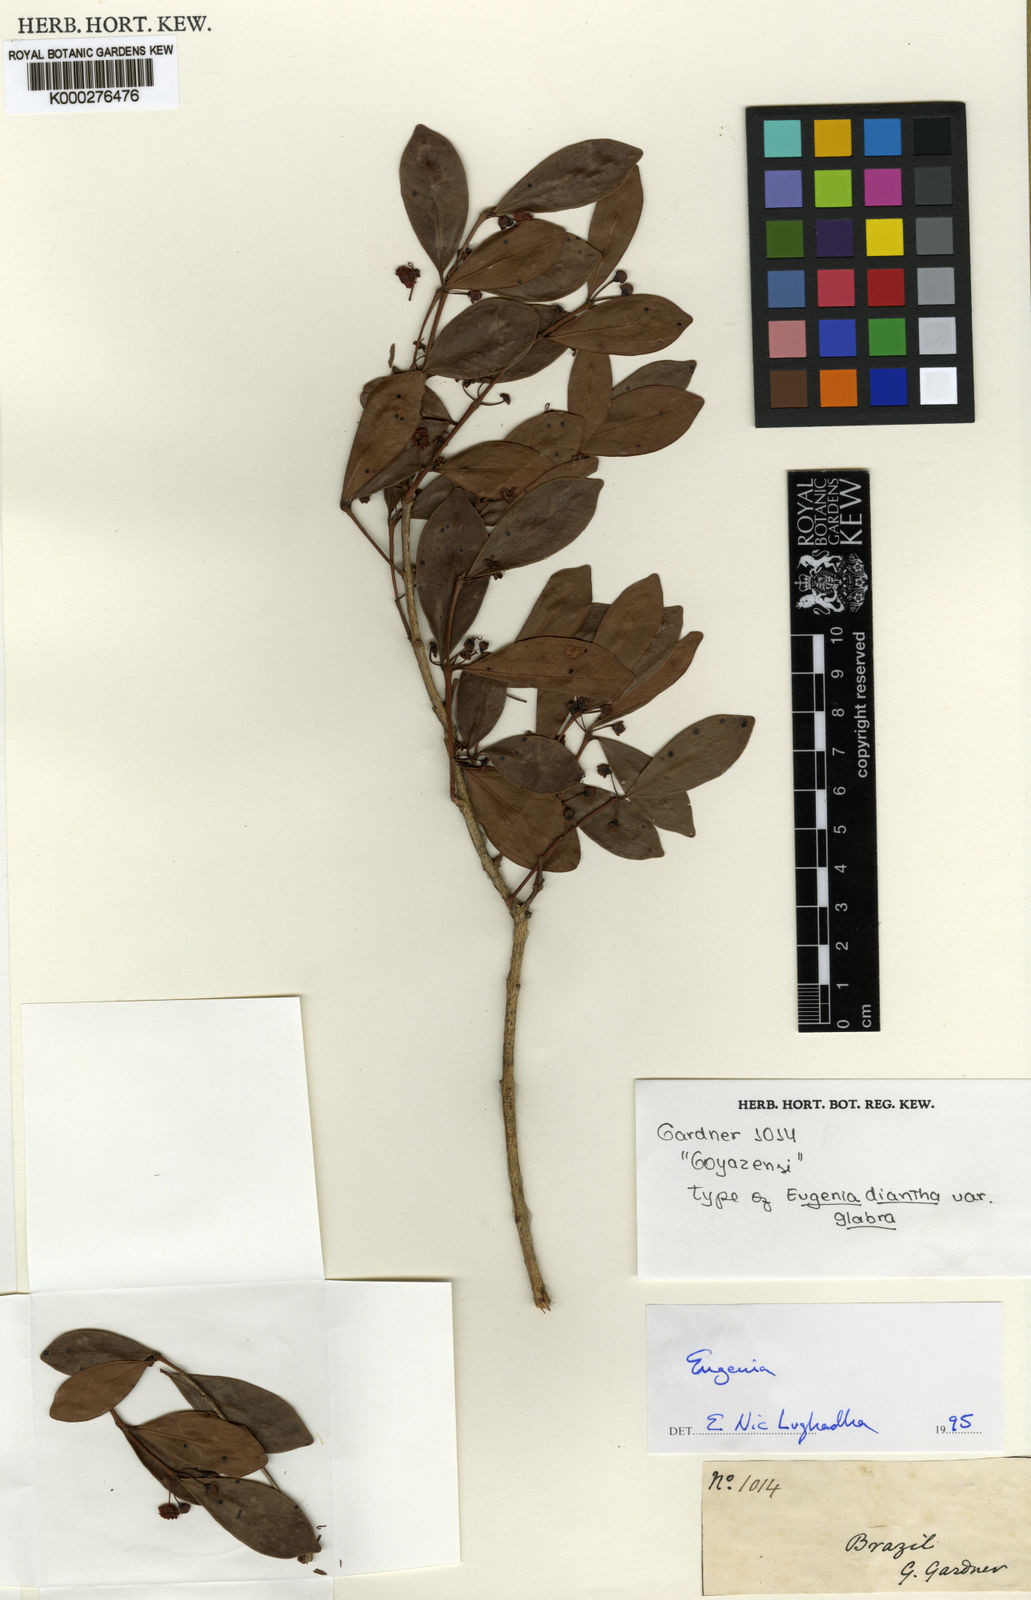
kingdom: Plantae
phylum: Tracheophyta
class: Magnoliopsida
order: Myrtales
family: Myrtaceae
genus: Eugenia
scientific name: Eugenia punicifolia
